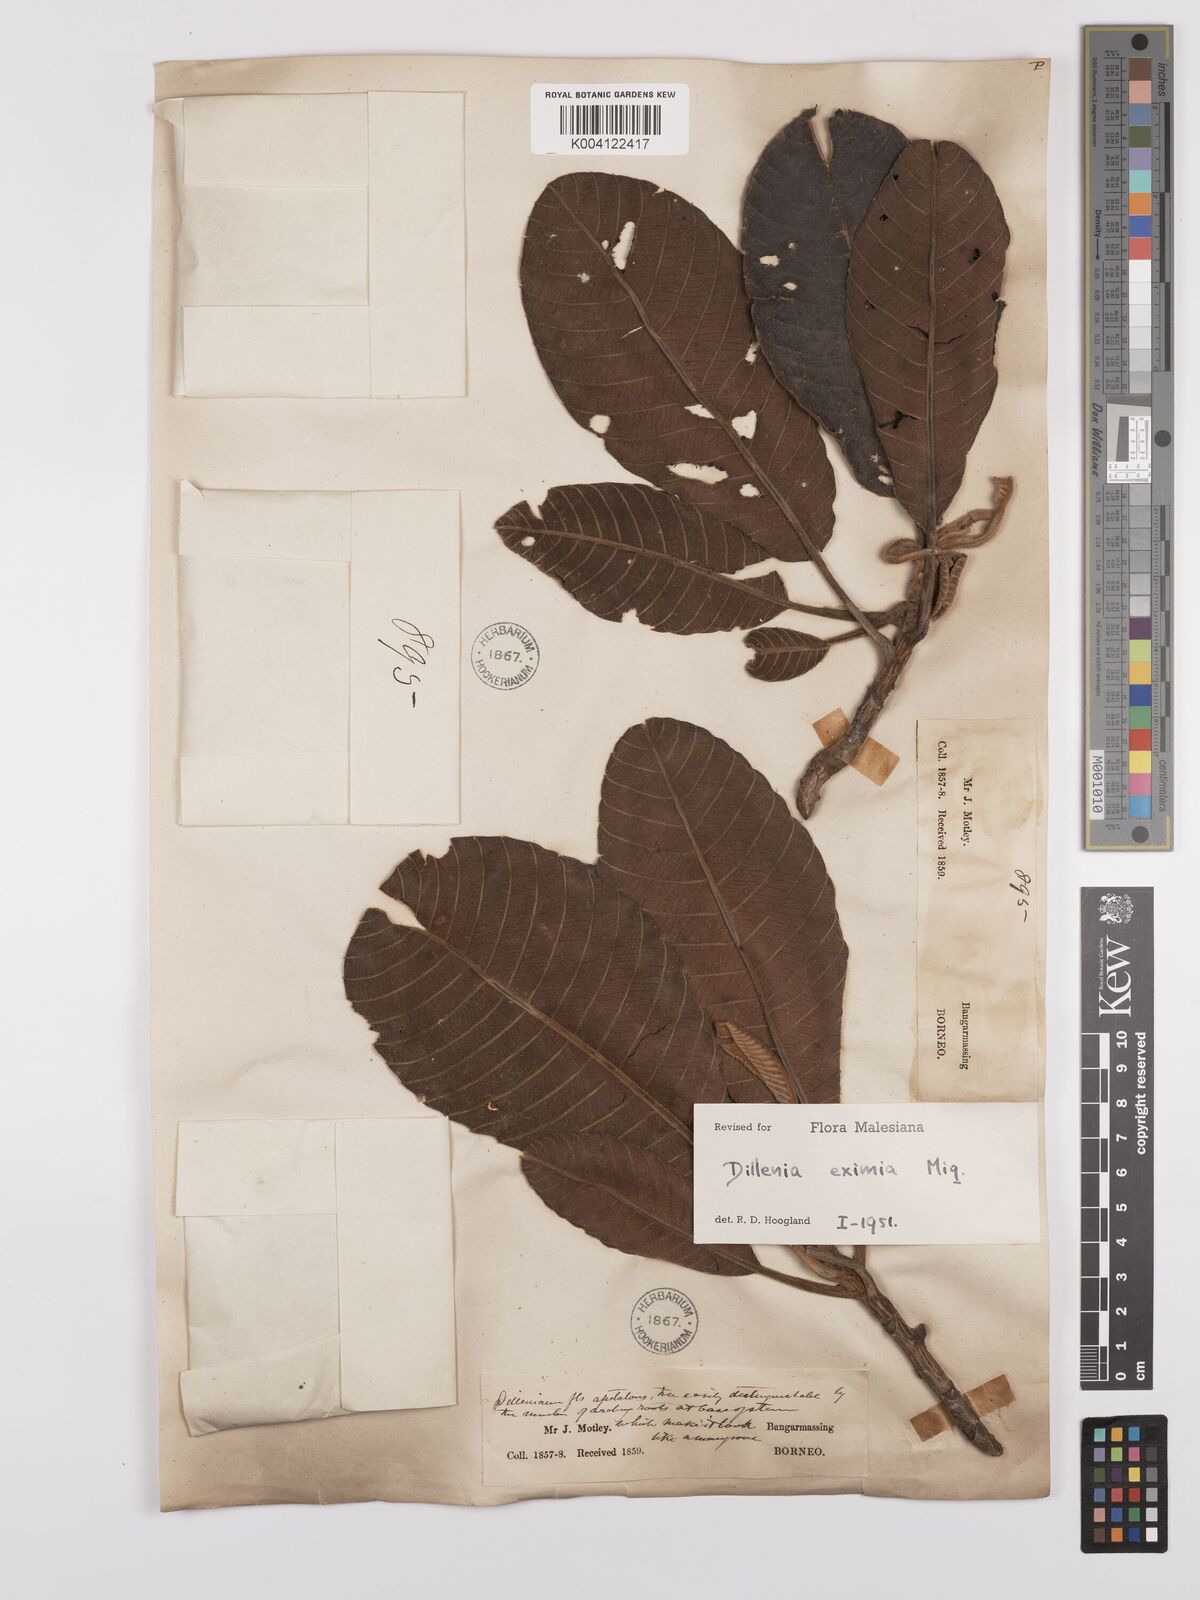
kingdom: Plantae
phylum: Tracheophyta
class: Magnoliopsida
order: Dilleniales
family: Dilleniaceae
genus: Dillenia
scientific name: Dillenia grandifolia
